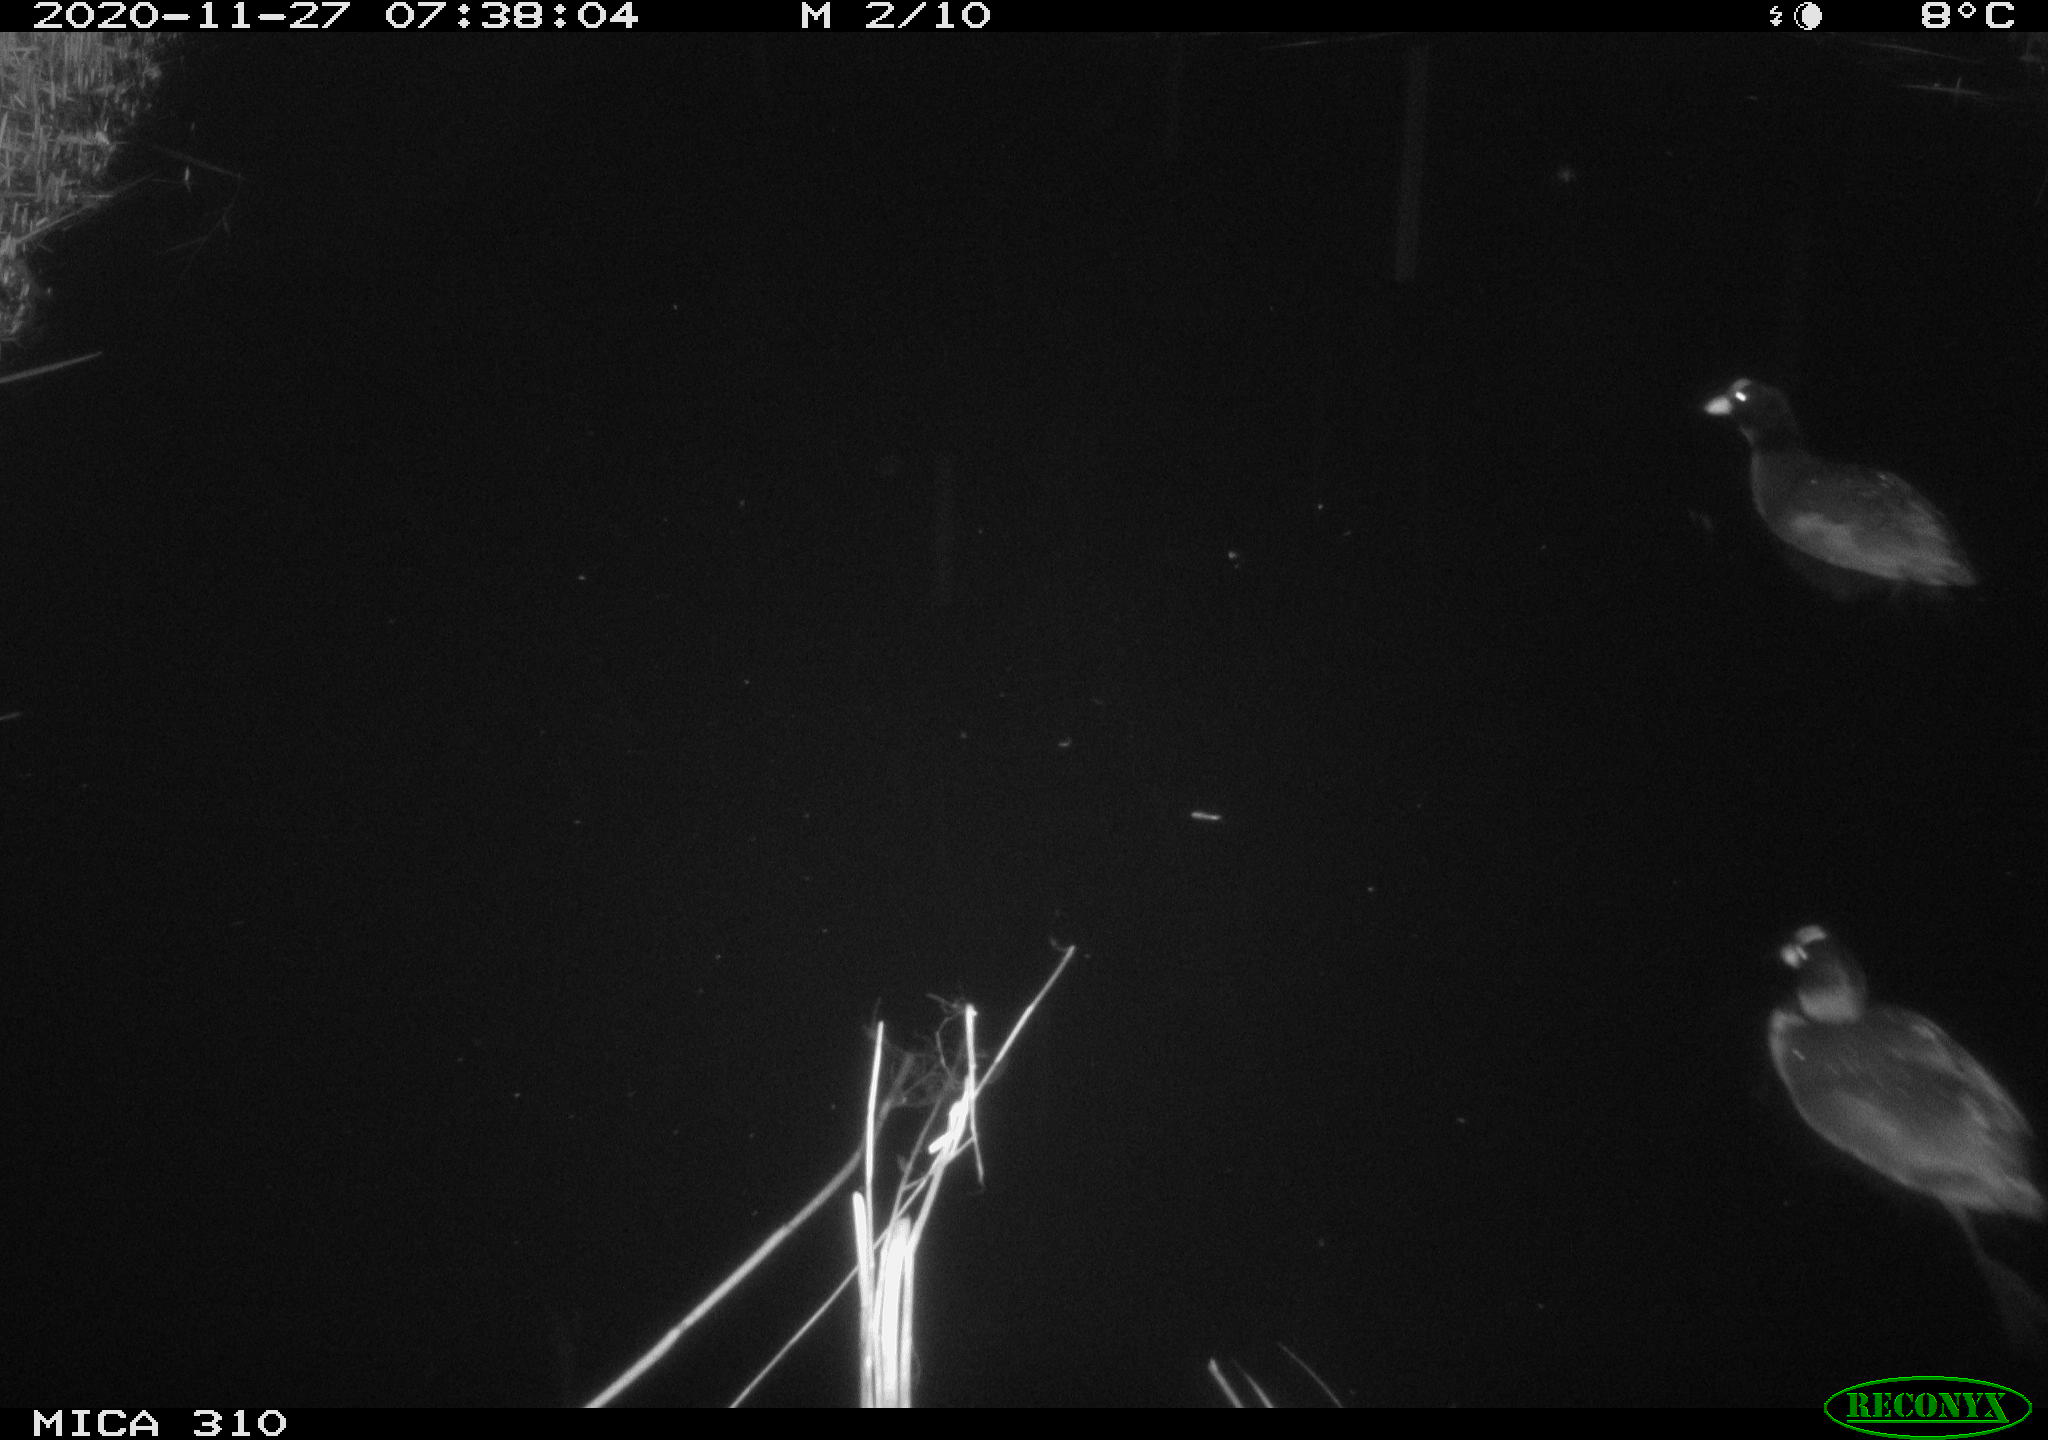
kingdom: Animalia
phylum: Chordata
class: Aves
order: Gruiformes
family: Rallidae
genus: Fulica
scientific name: Fulica atra
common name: Eurasian coot
